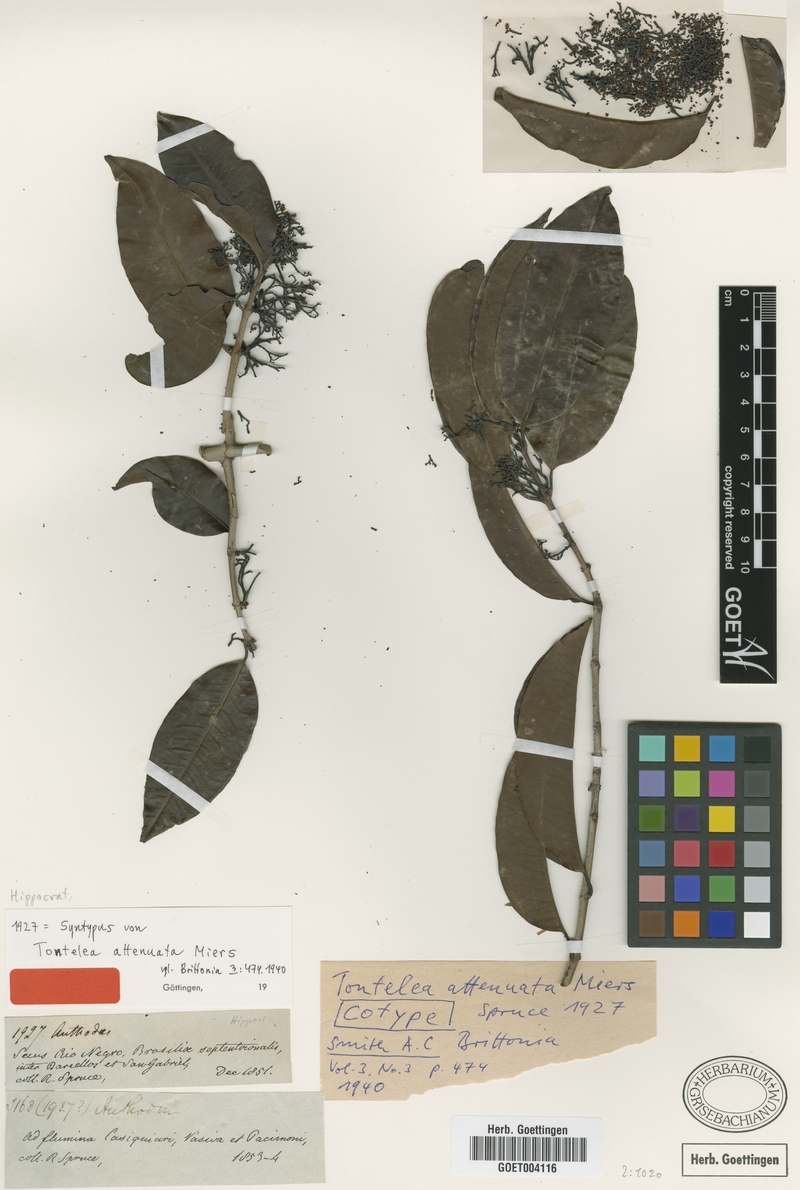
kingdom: Plantae
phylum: Tracheophyta
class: Magnoliopsida
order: Celastrales
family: Celastraceae
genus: Tontelea
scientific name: Tontelea attenuata
